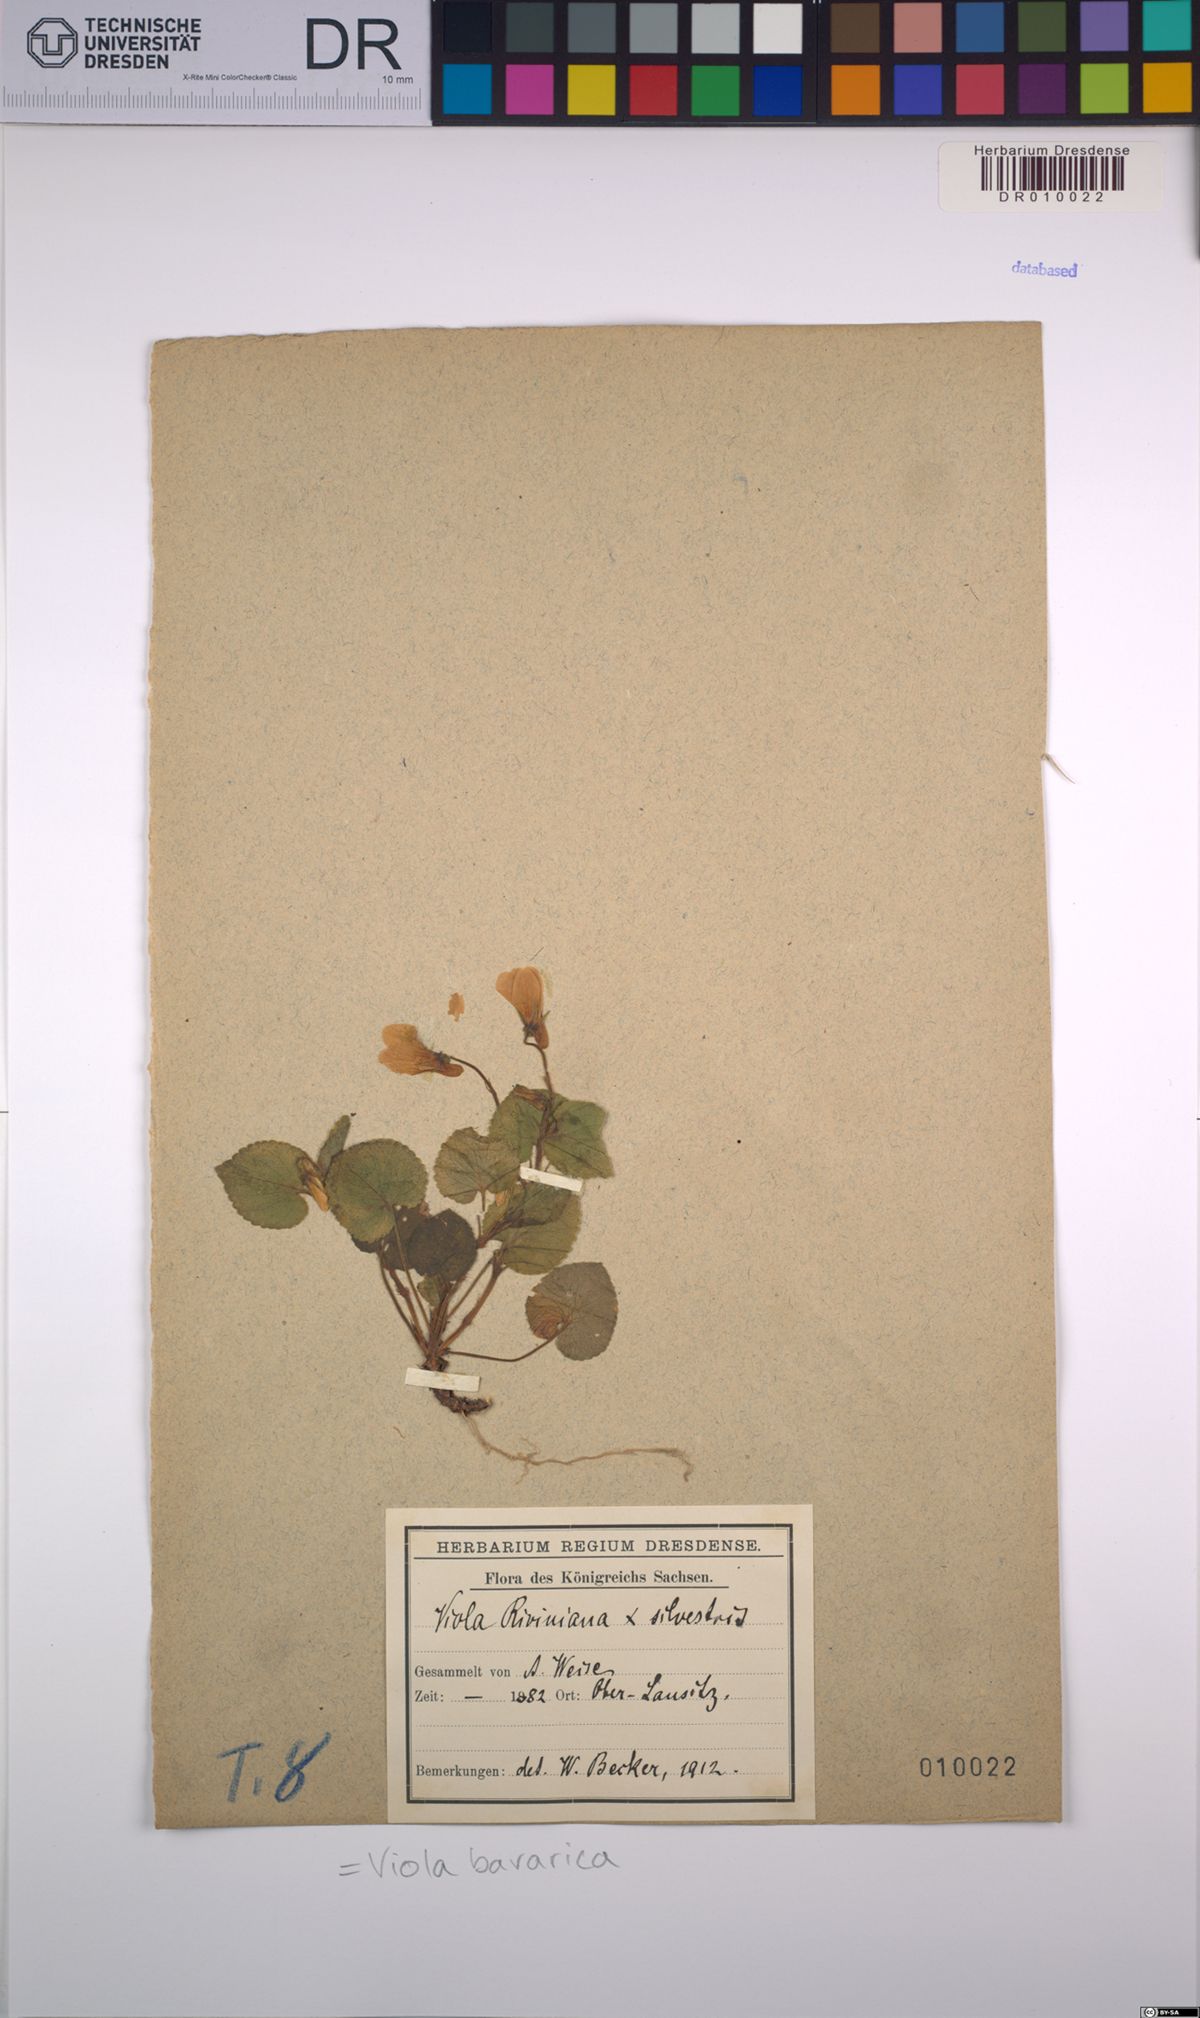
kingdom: Plantae
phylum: Tracheophyta
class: Magnoliopsida
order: Malpighiales
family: Violaceae
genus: Viola
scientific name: Viola bavarica
